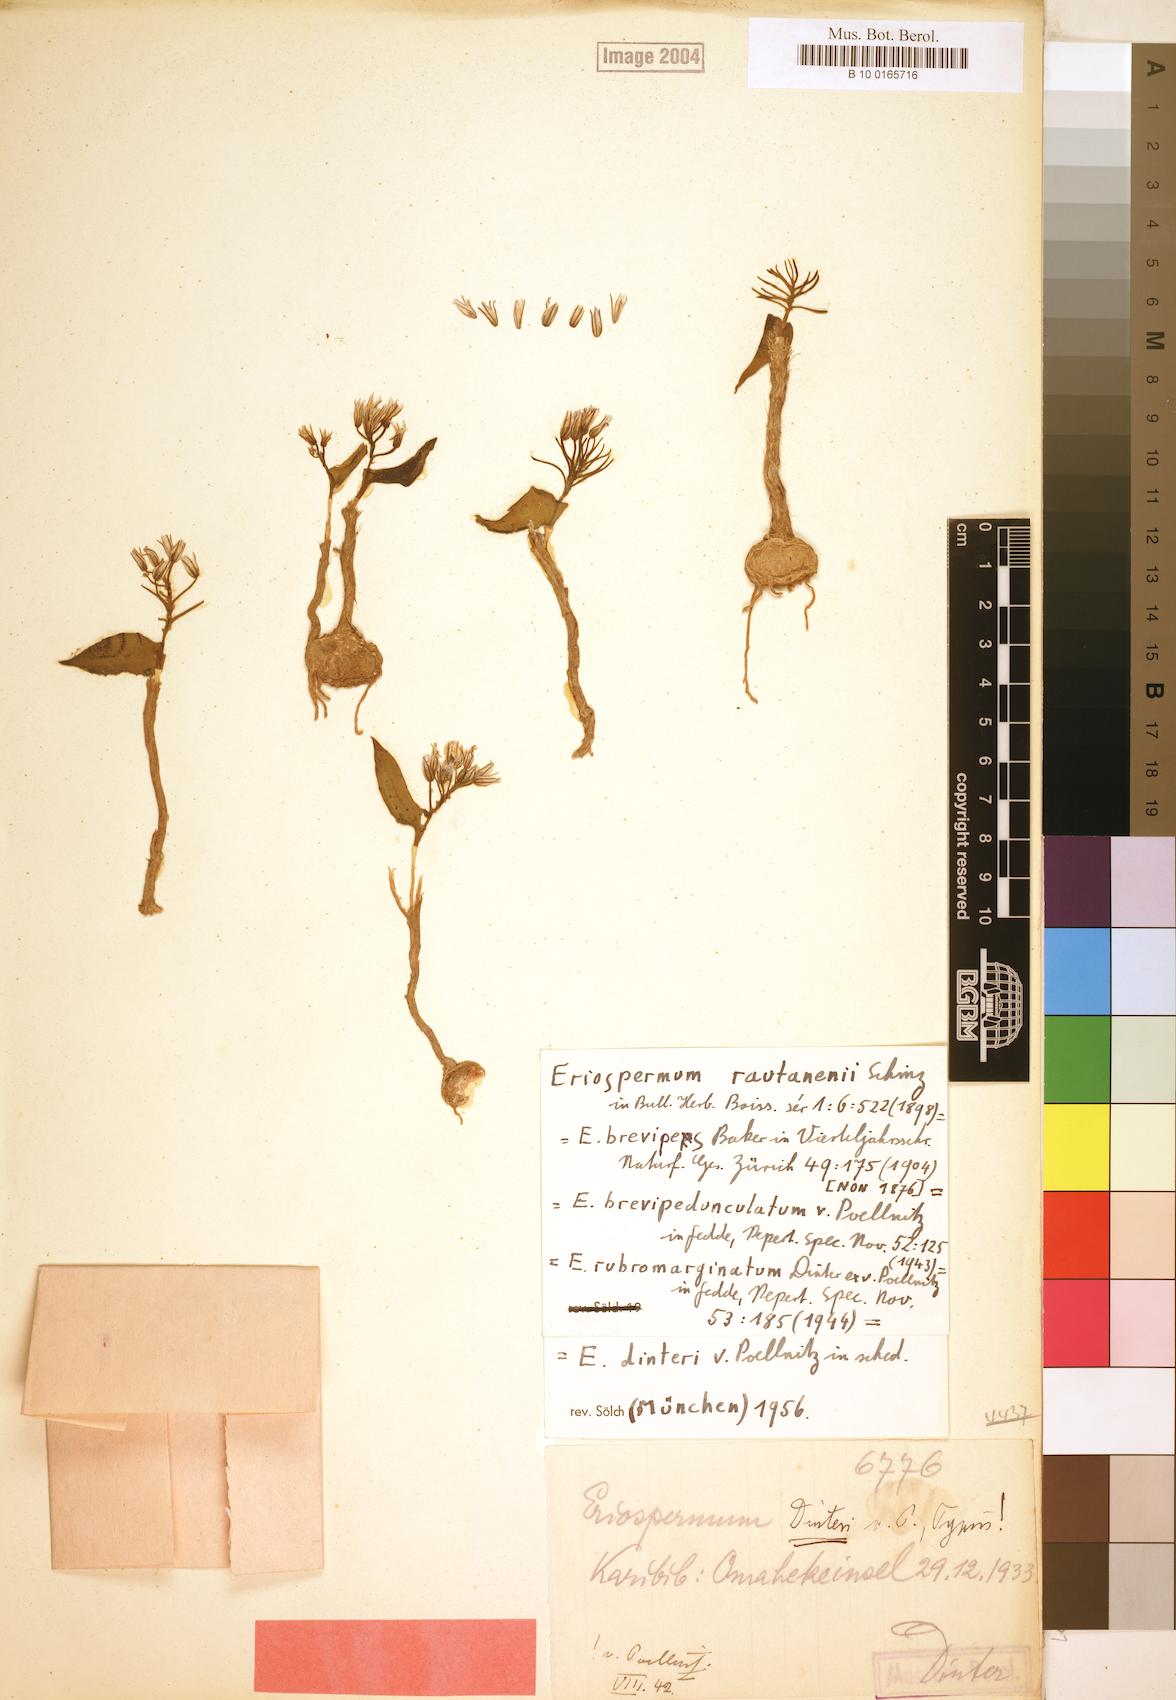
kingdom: Plantae
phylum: Tracheophyta
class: Liliopsida
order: Asparagales
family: Asparagaceae
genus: Eriospermum
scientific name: Eriospermum currorii
